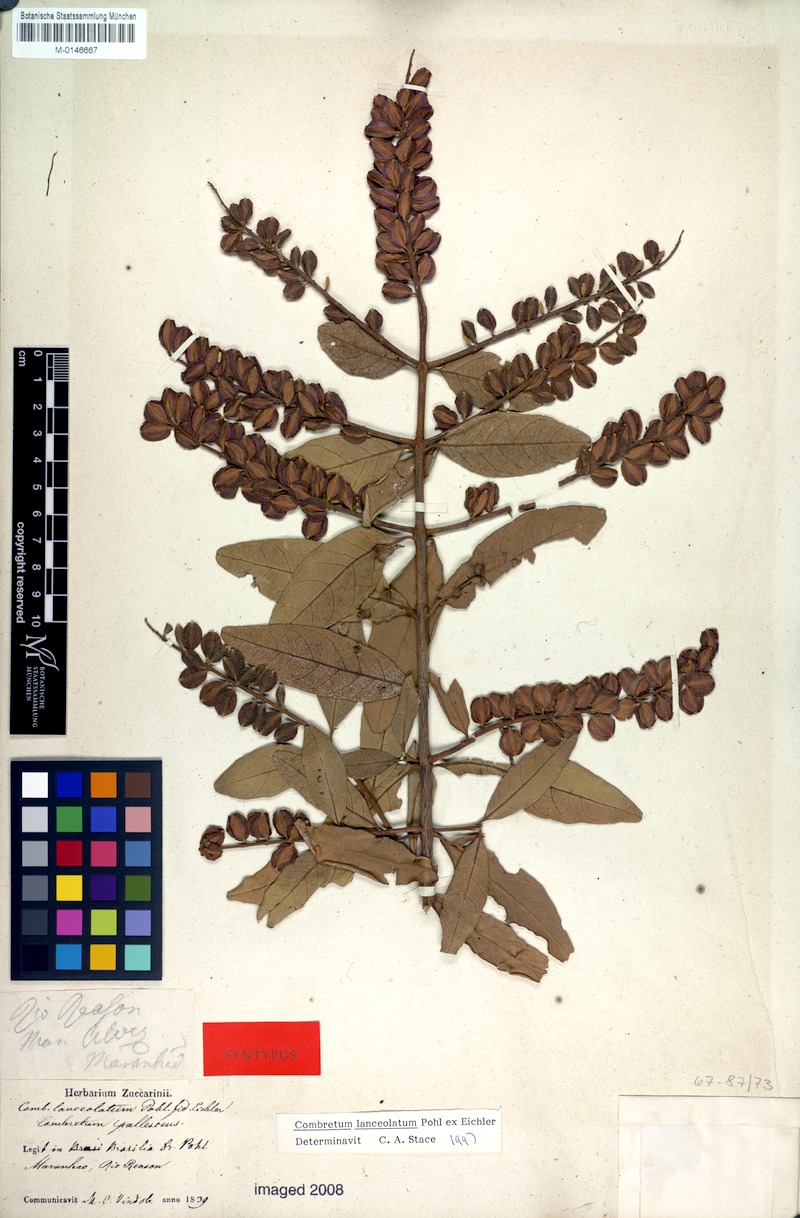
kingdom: Plantae
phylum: Tracheophyta
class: Magnoliopsida
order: Myrtales
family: Combretaceae
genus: Combretum
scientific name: Combretum lanceolatum
